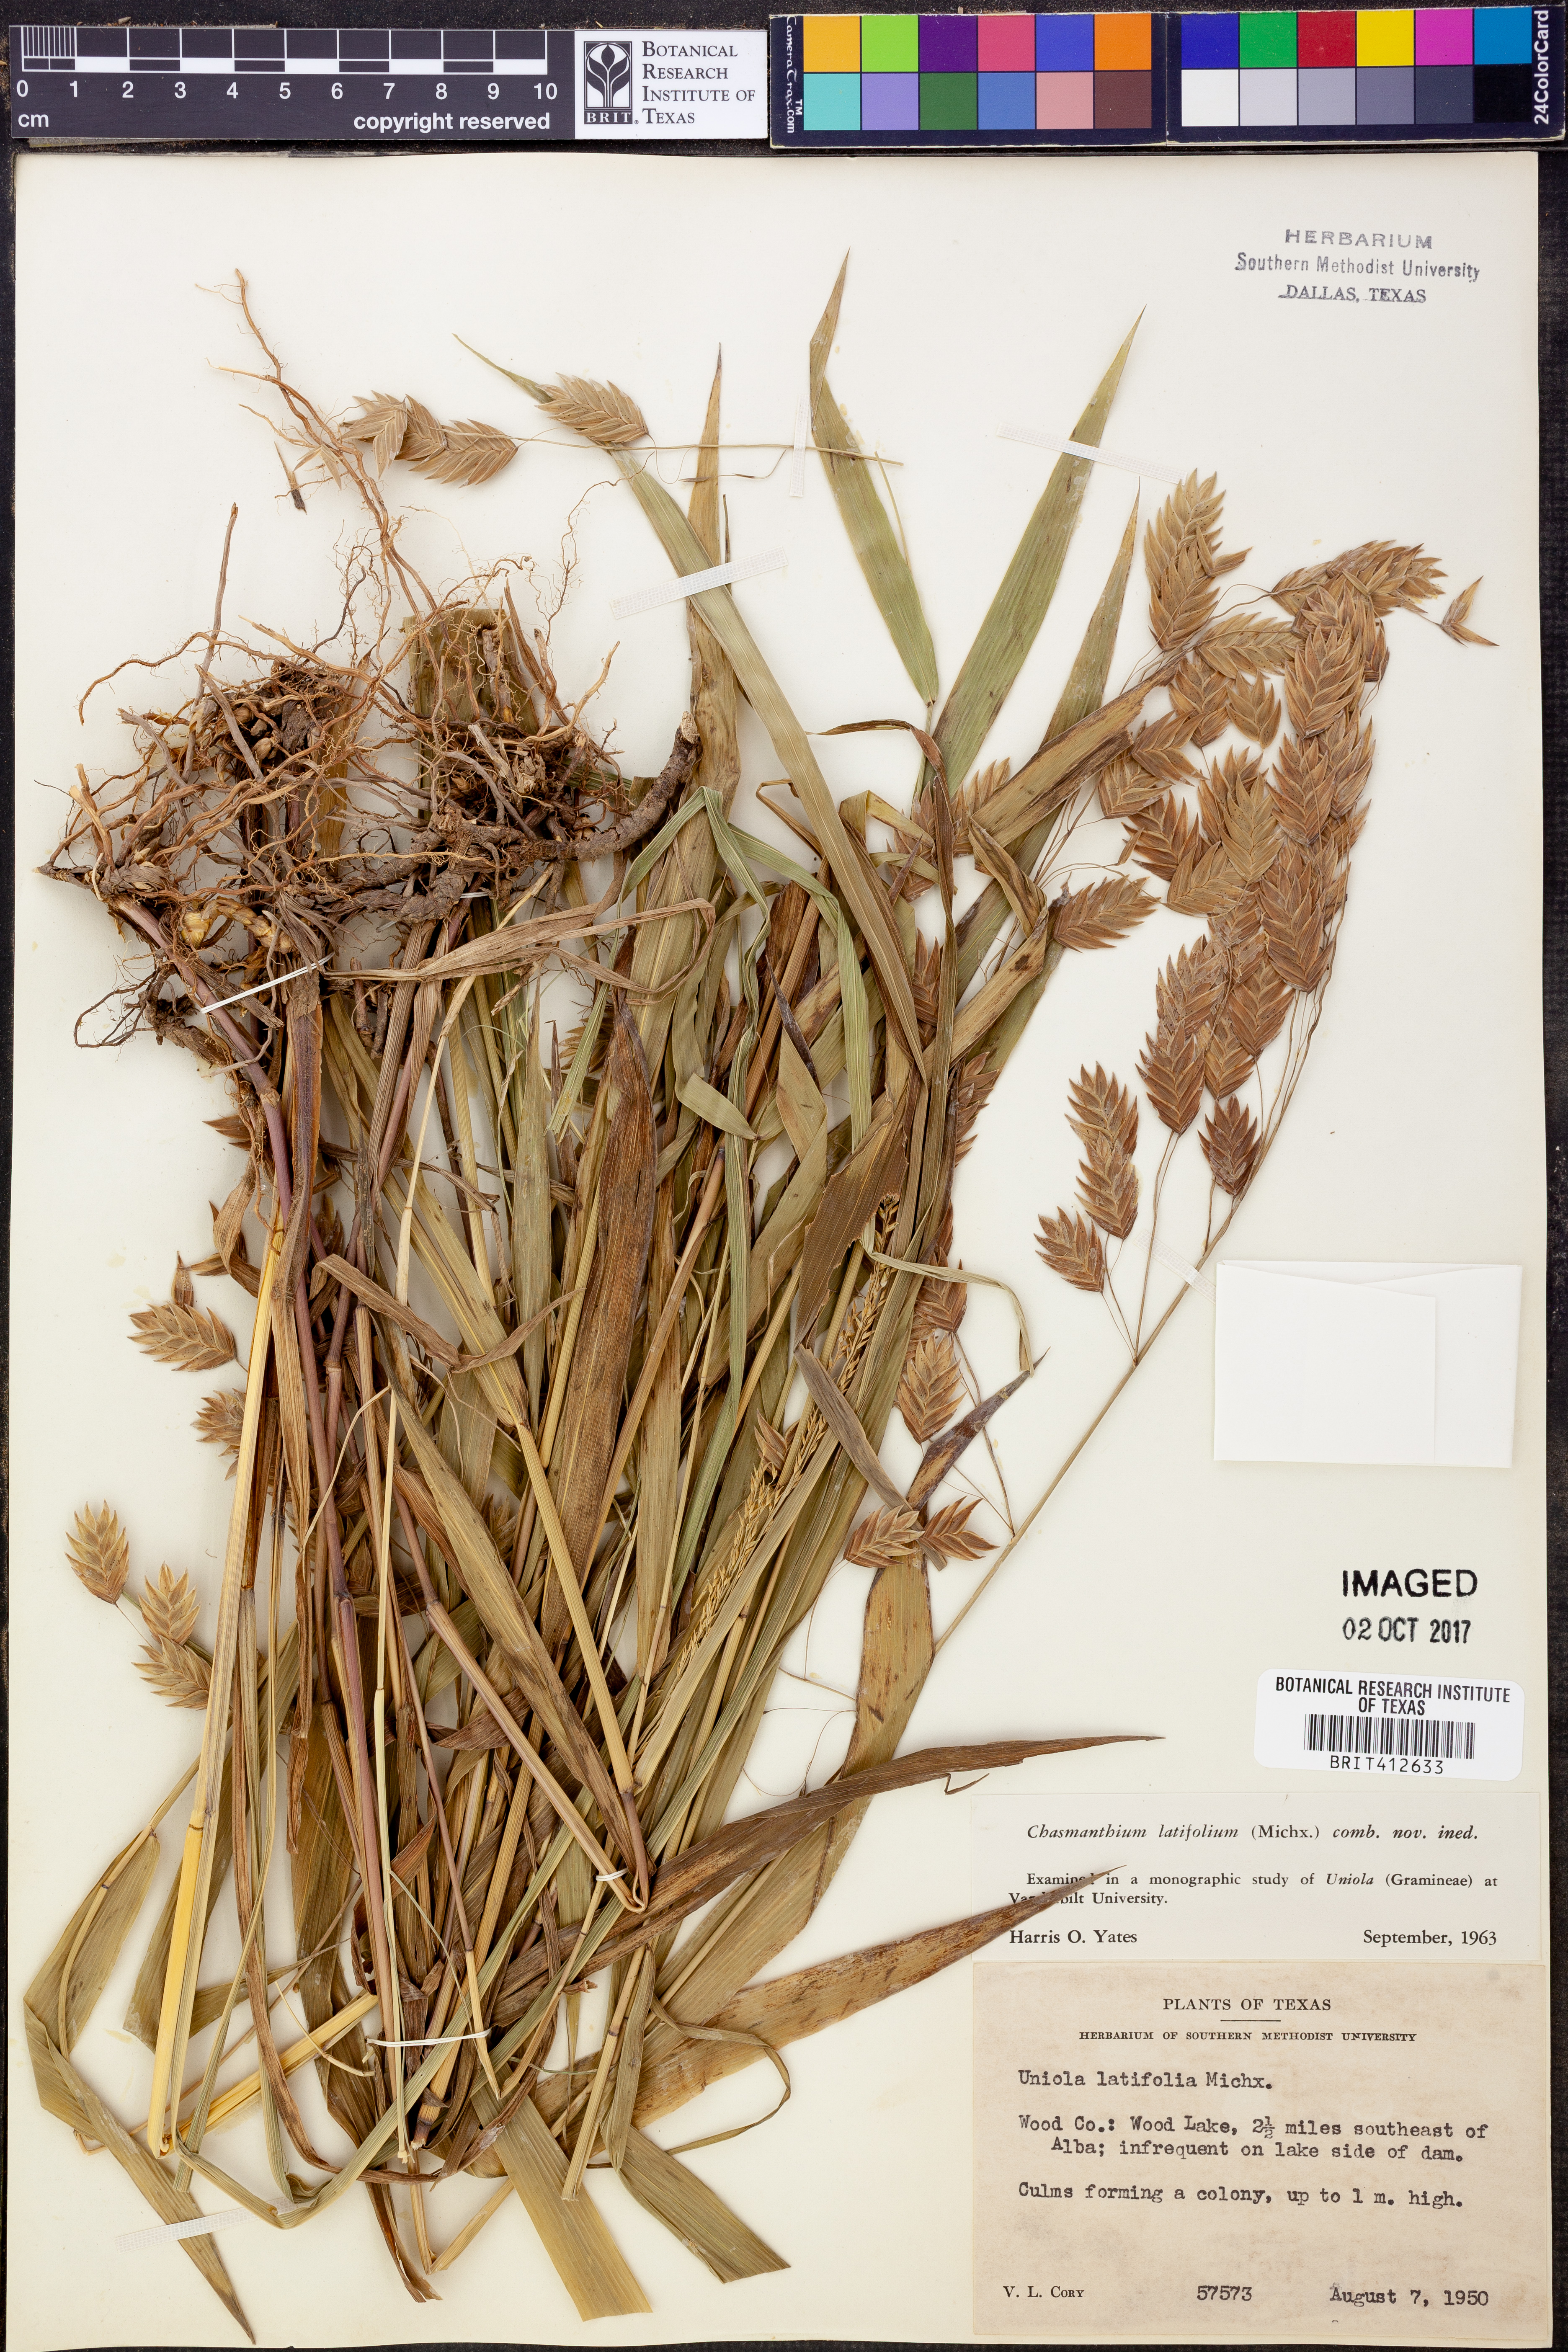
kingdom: Plantae
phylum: Tracheophyta
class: Liliopsida
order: Poales
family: Poaceae
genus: Chasmanthium
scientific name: Chasmanthium latifolium
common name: Broad-leaved chasmanthium
